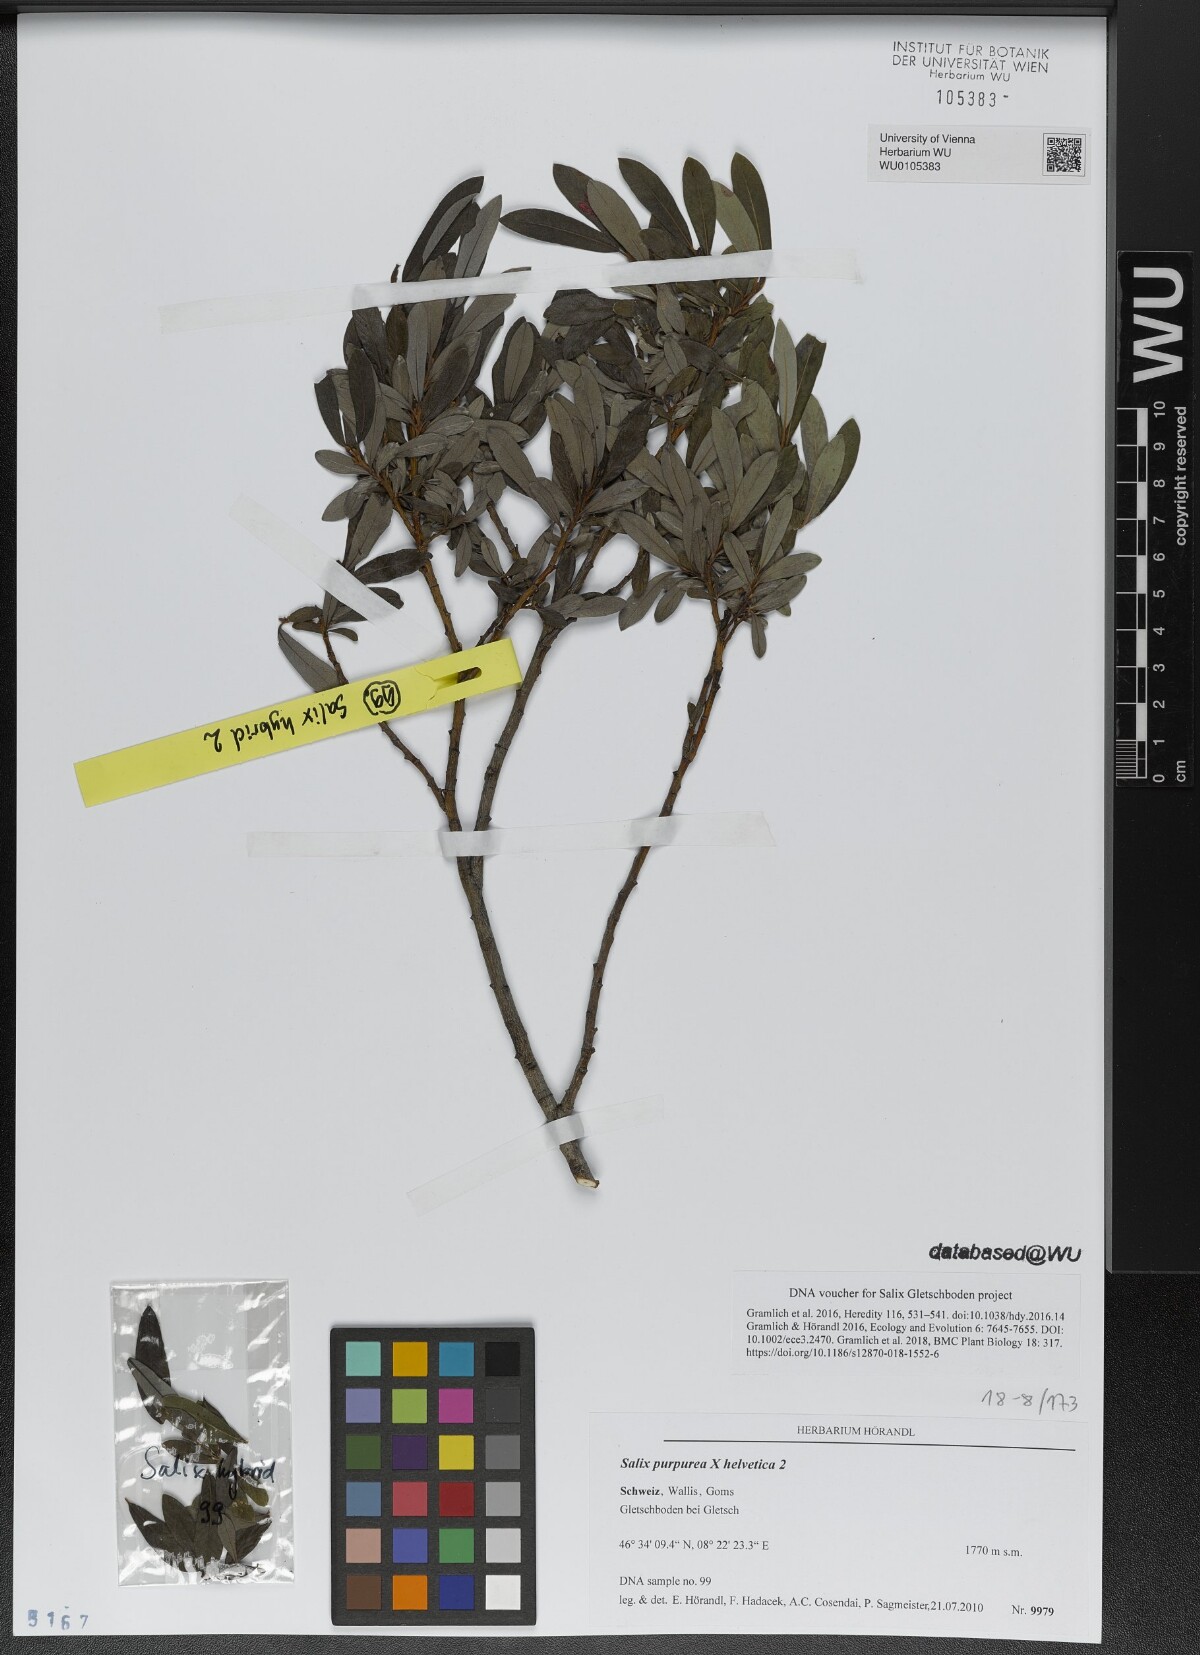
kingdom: Plantae
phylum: Tracheophyta
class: Magnoliopsida
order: Malpighiales
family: Salicaceae
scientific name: Salicaceae
